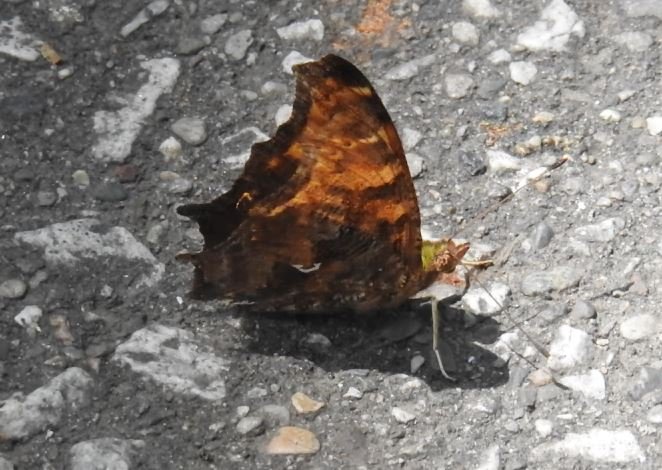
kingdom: Animalia
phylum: Arthropoda
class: Insecta
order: Lepidoptera
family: Nymphalidae
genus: Polygonia
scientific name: Polygonia comma
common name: Eastern Comma
